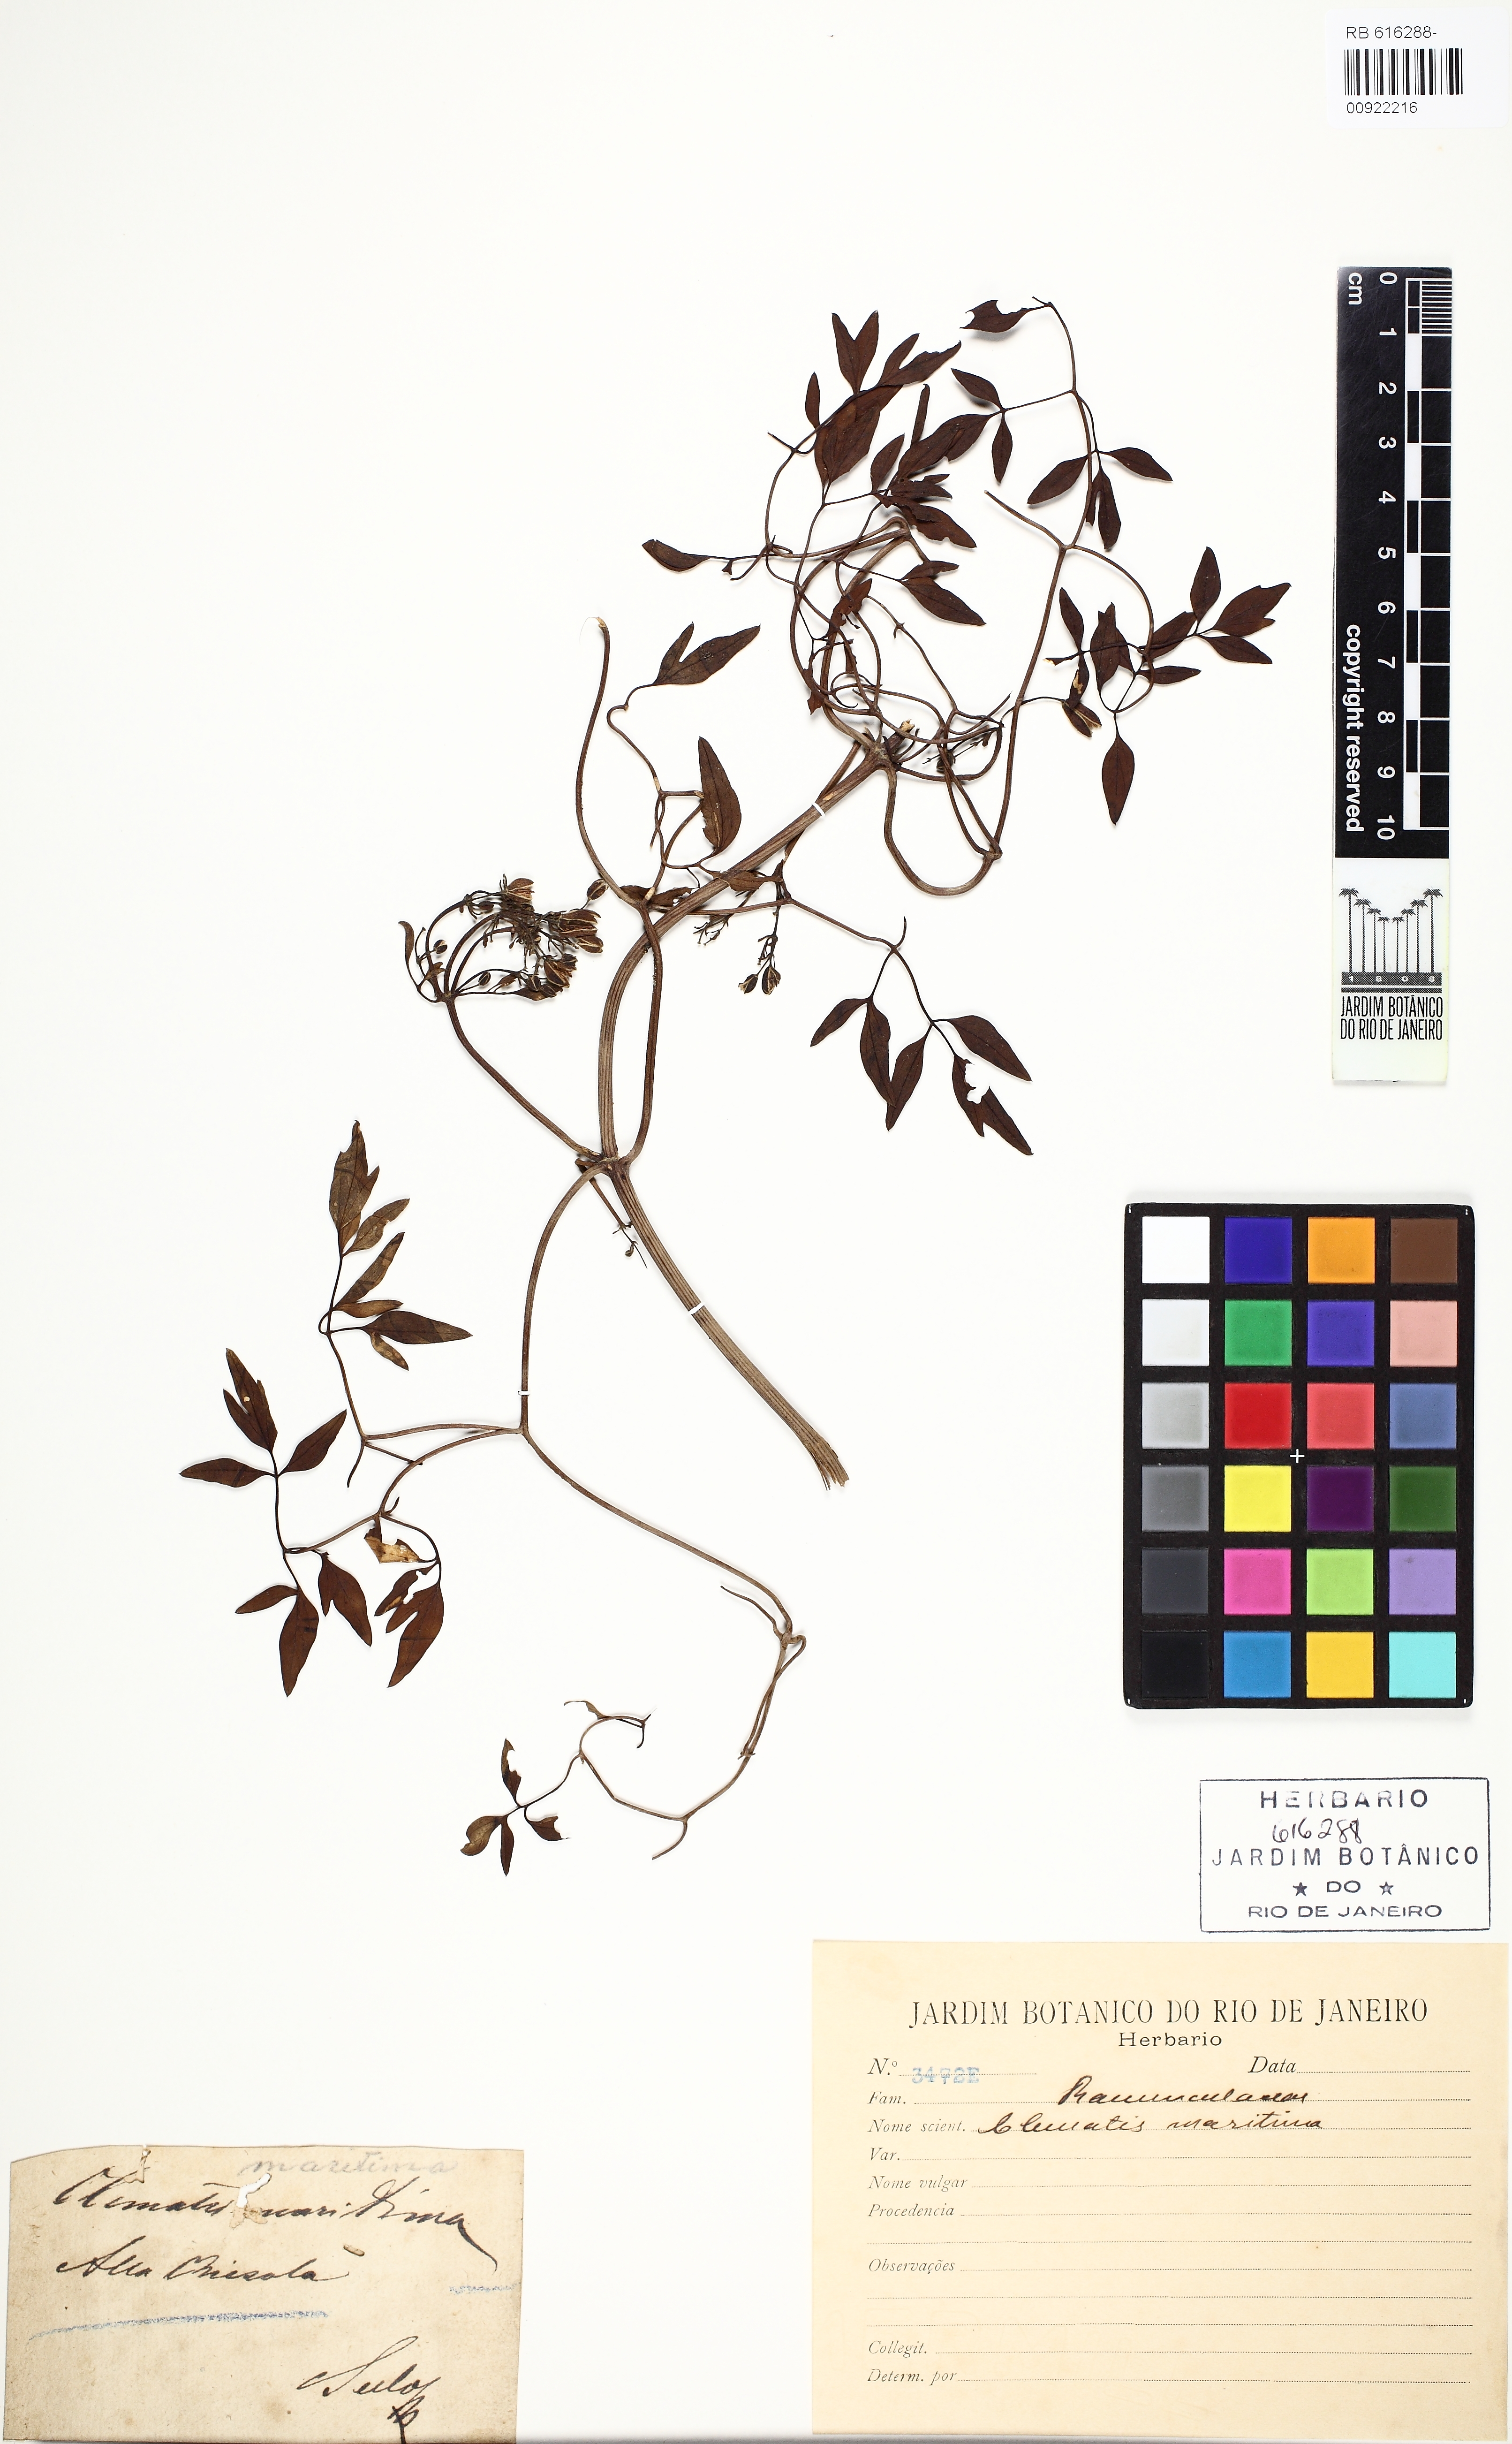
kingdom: Plantae
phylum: Tracheophyta
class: Magnoliopsida
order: Ranunculales
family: Ranunculaceae
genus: Clematis
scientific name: Clematis flammula
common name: Virgin's-bower
